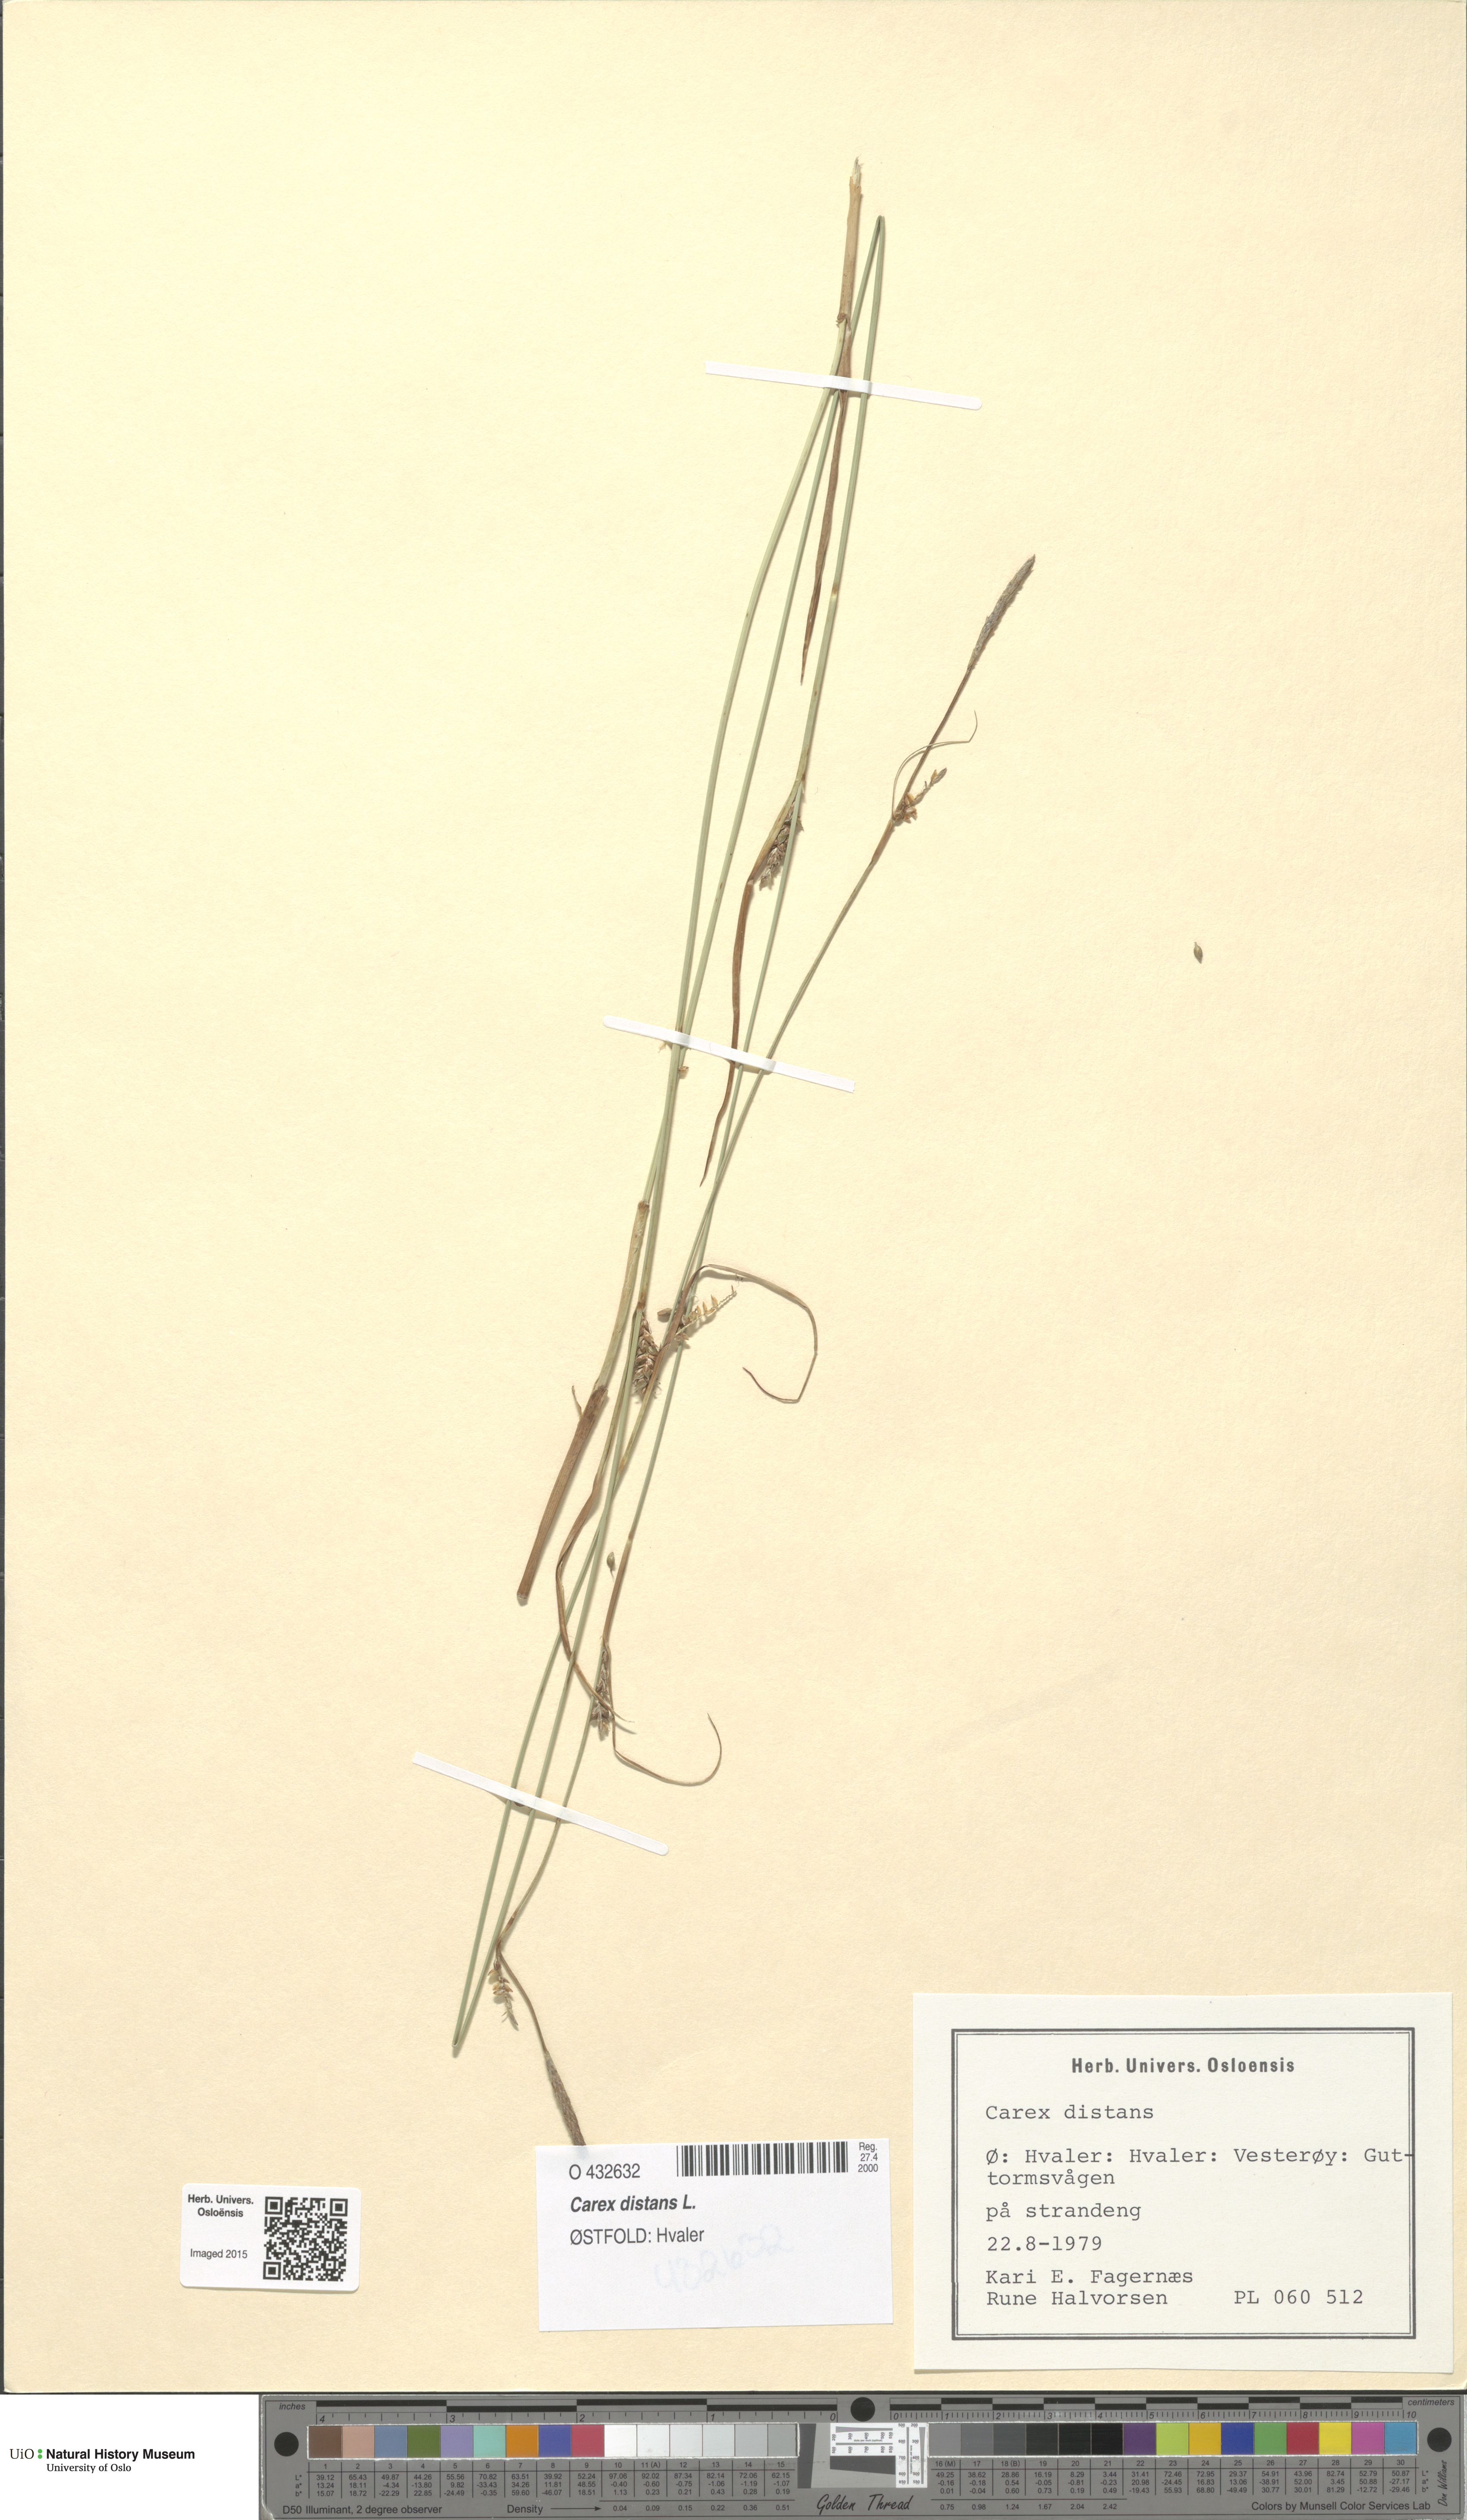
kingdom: Plantae
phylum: Tracheophyta
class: Liliopsida
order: Poales
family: Cyperaceae
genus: Carex
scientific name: Carex distans
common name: Distant sedge
